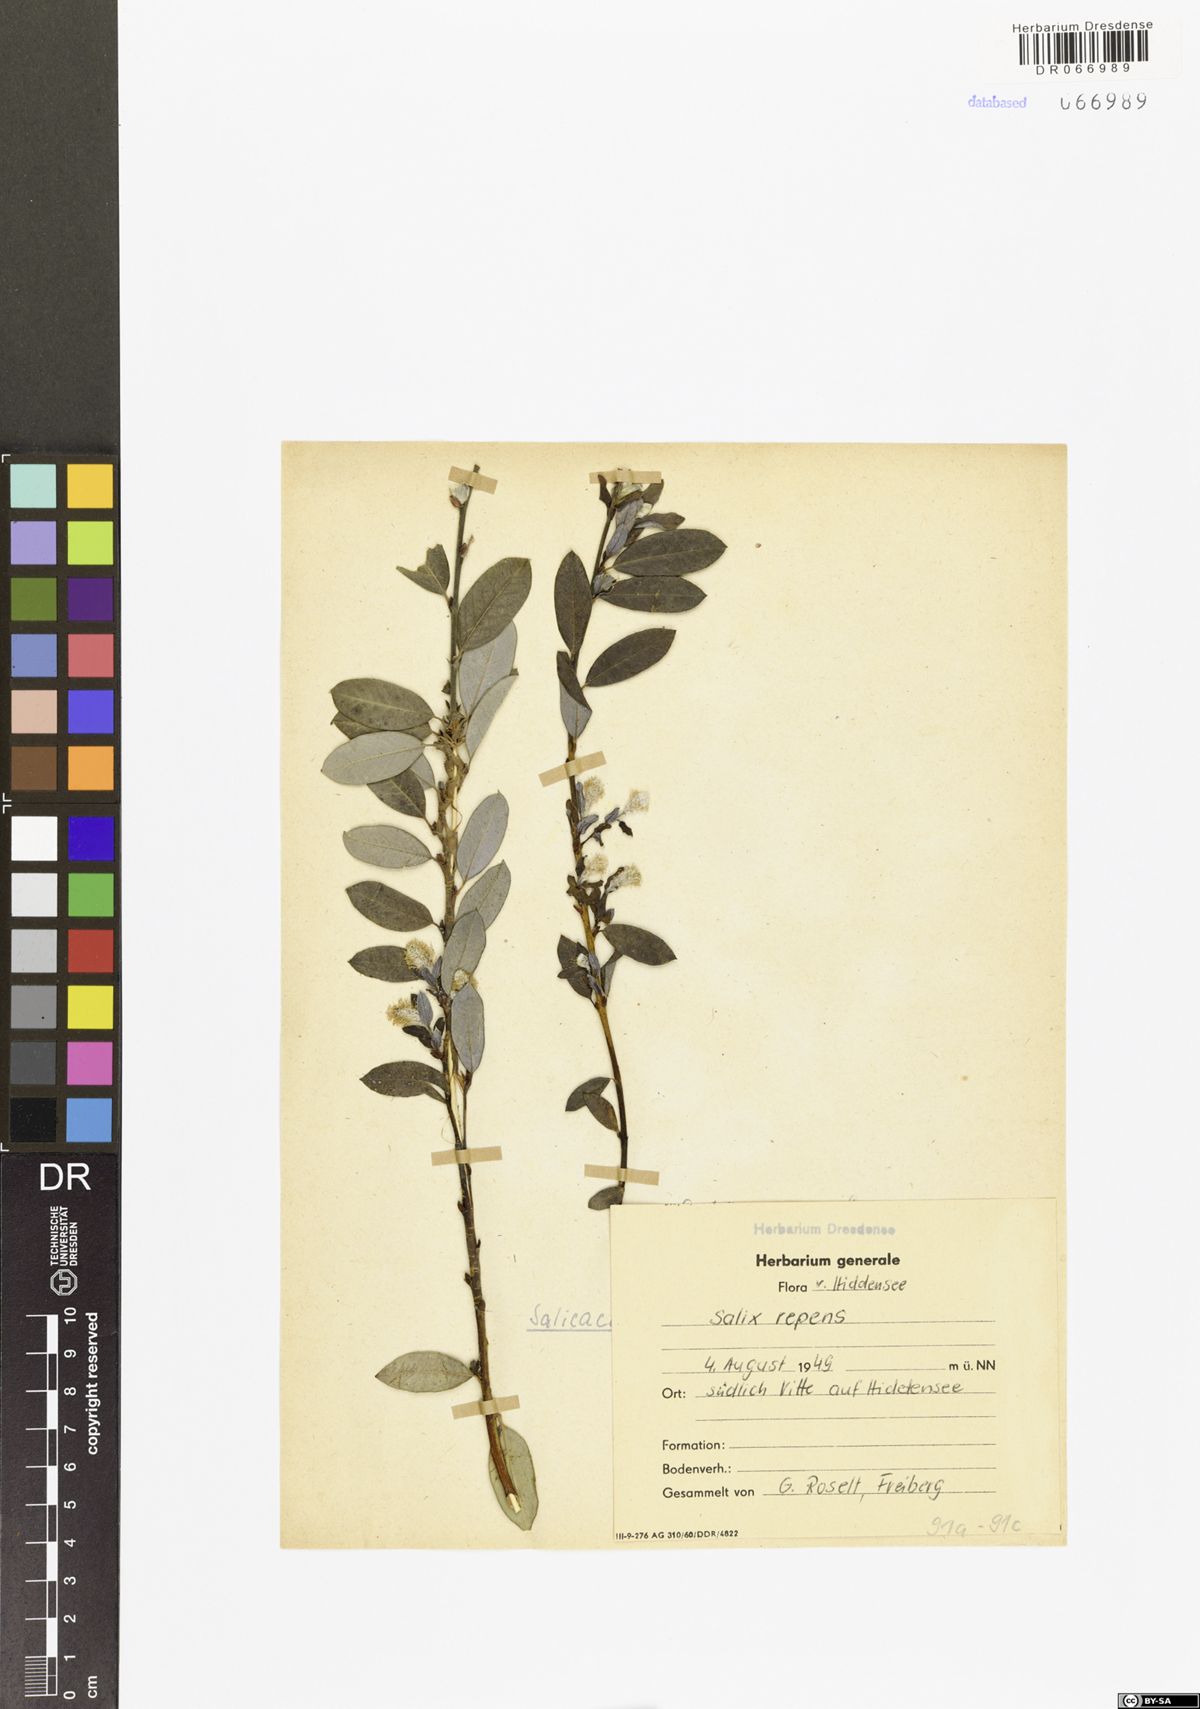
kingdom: Plantae
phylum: Tracheophyta
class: Magnoliopsida
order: Malpighiales
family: Salicaceae
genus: Salix
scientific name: Salix repens
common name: Creeping willow
